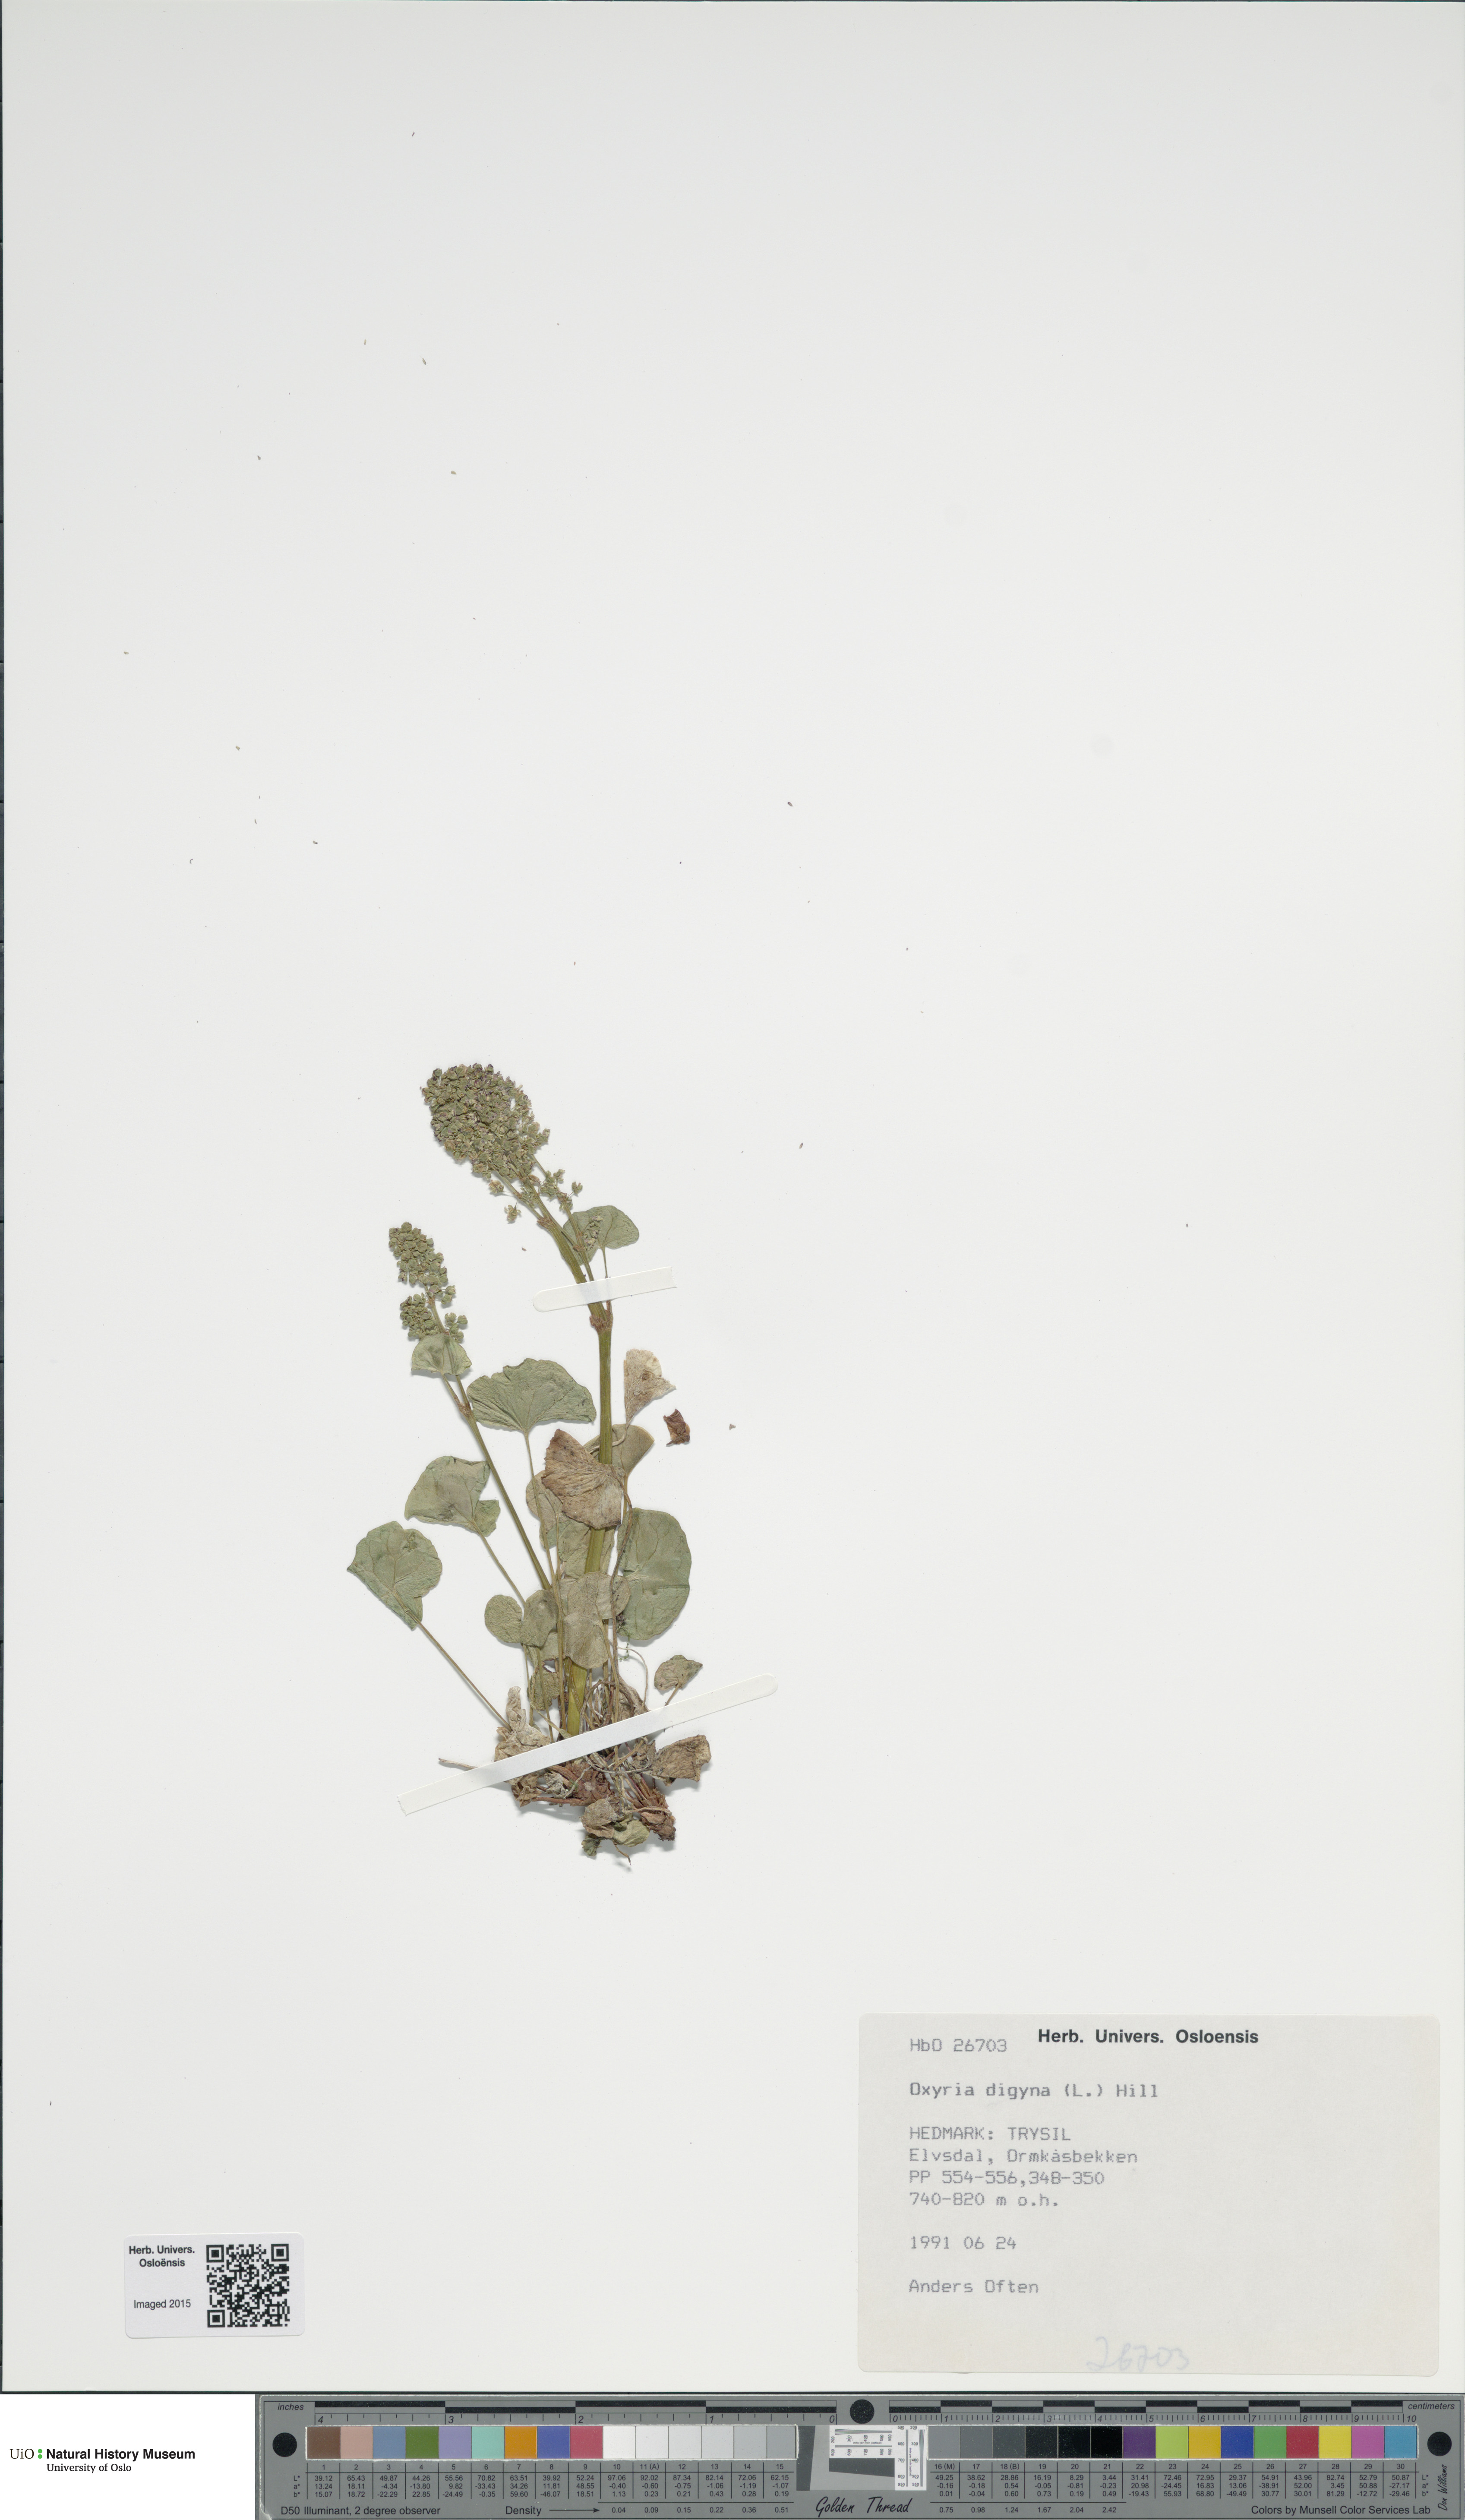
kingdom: Plantae
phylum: Tracheophyta
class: Magnoliopsida
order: Caryophyllales
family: Polygonaceae
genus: Oxyria
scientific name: Oxyria digyna
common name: Alpine mountain-sorrel
